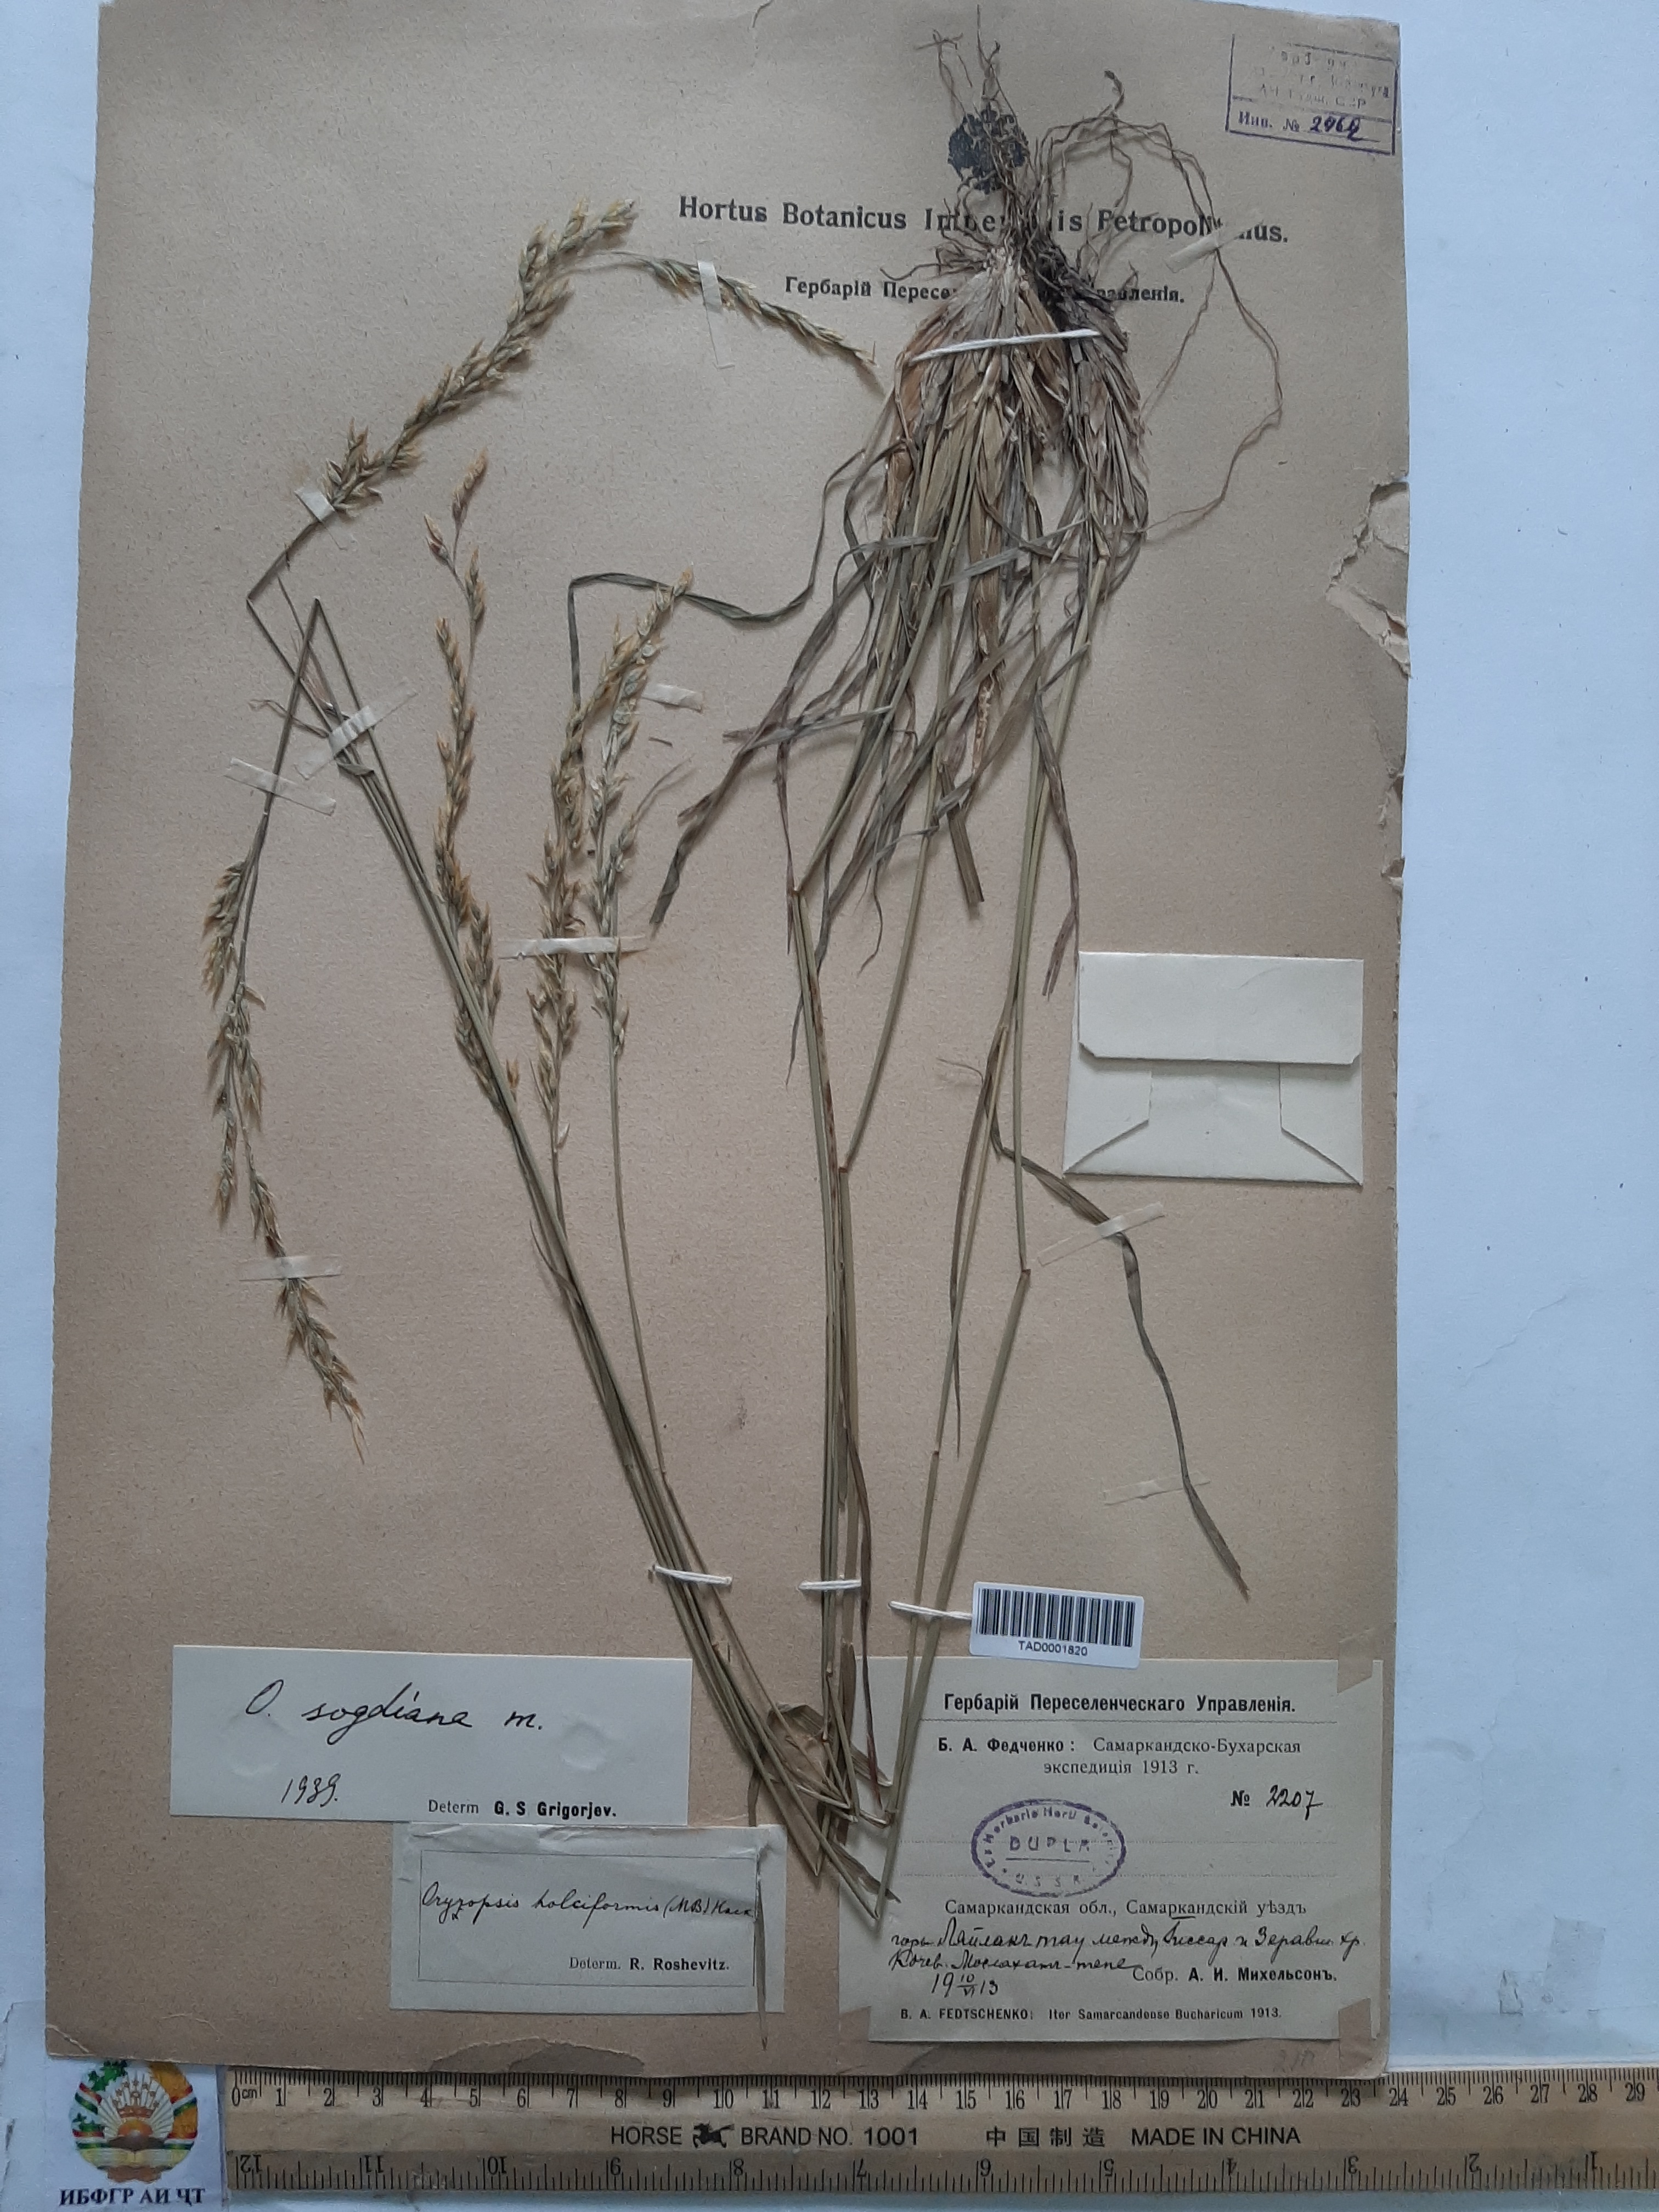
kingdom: Plantae
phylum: Tracheophyta
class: Liliopsida
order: Poales
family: Poaceae
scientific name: Poaceae
